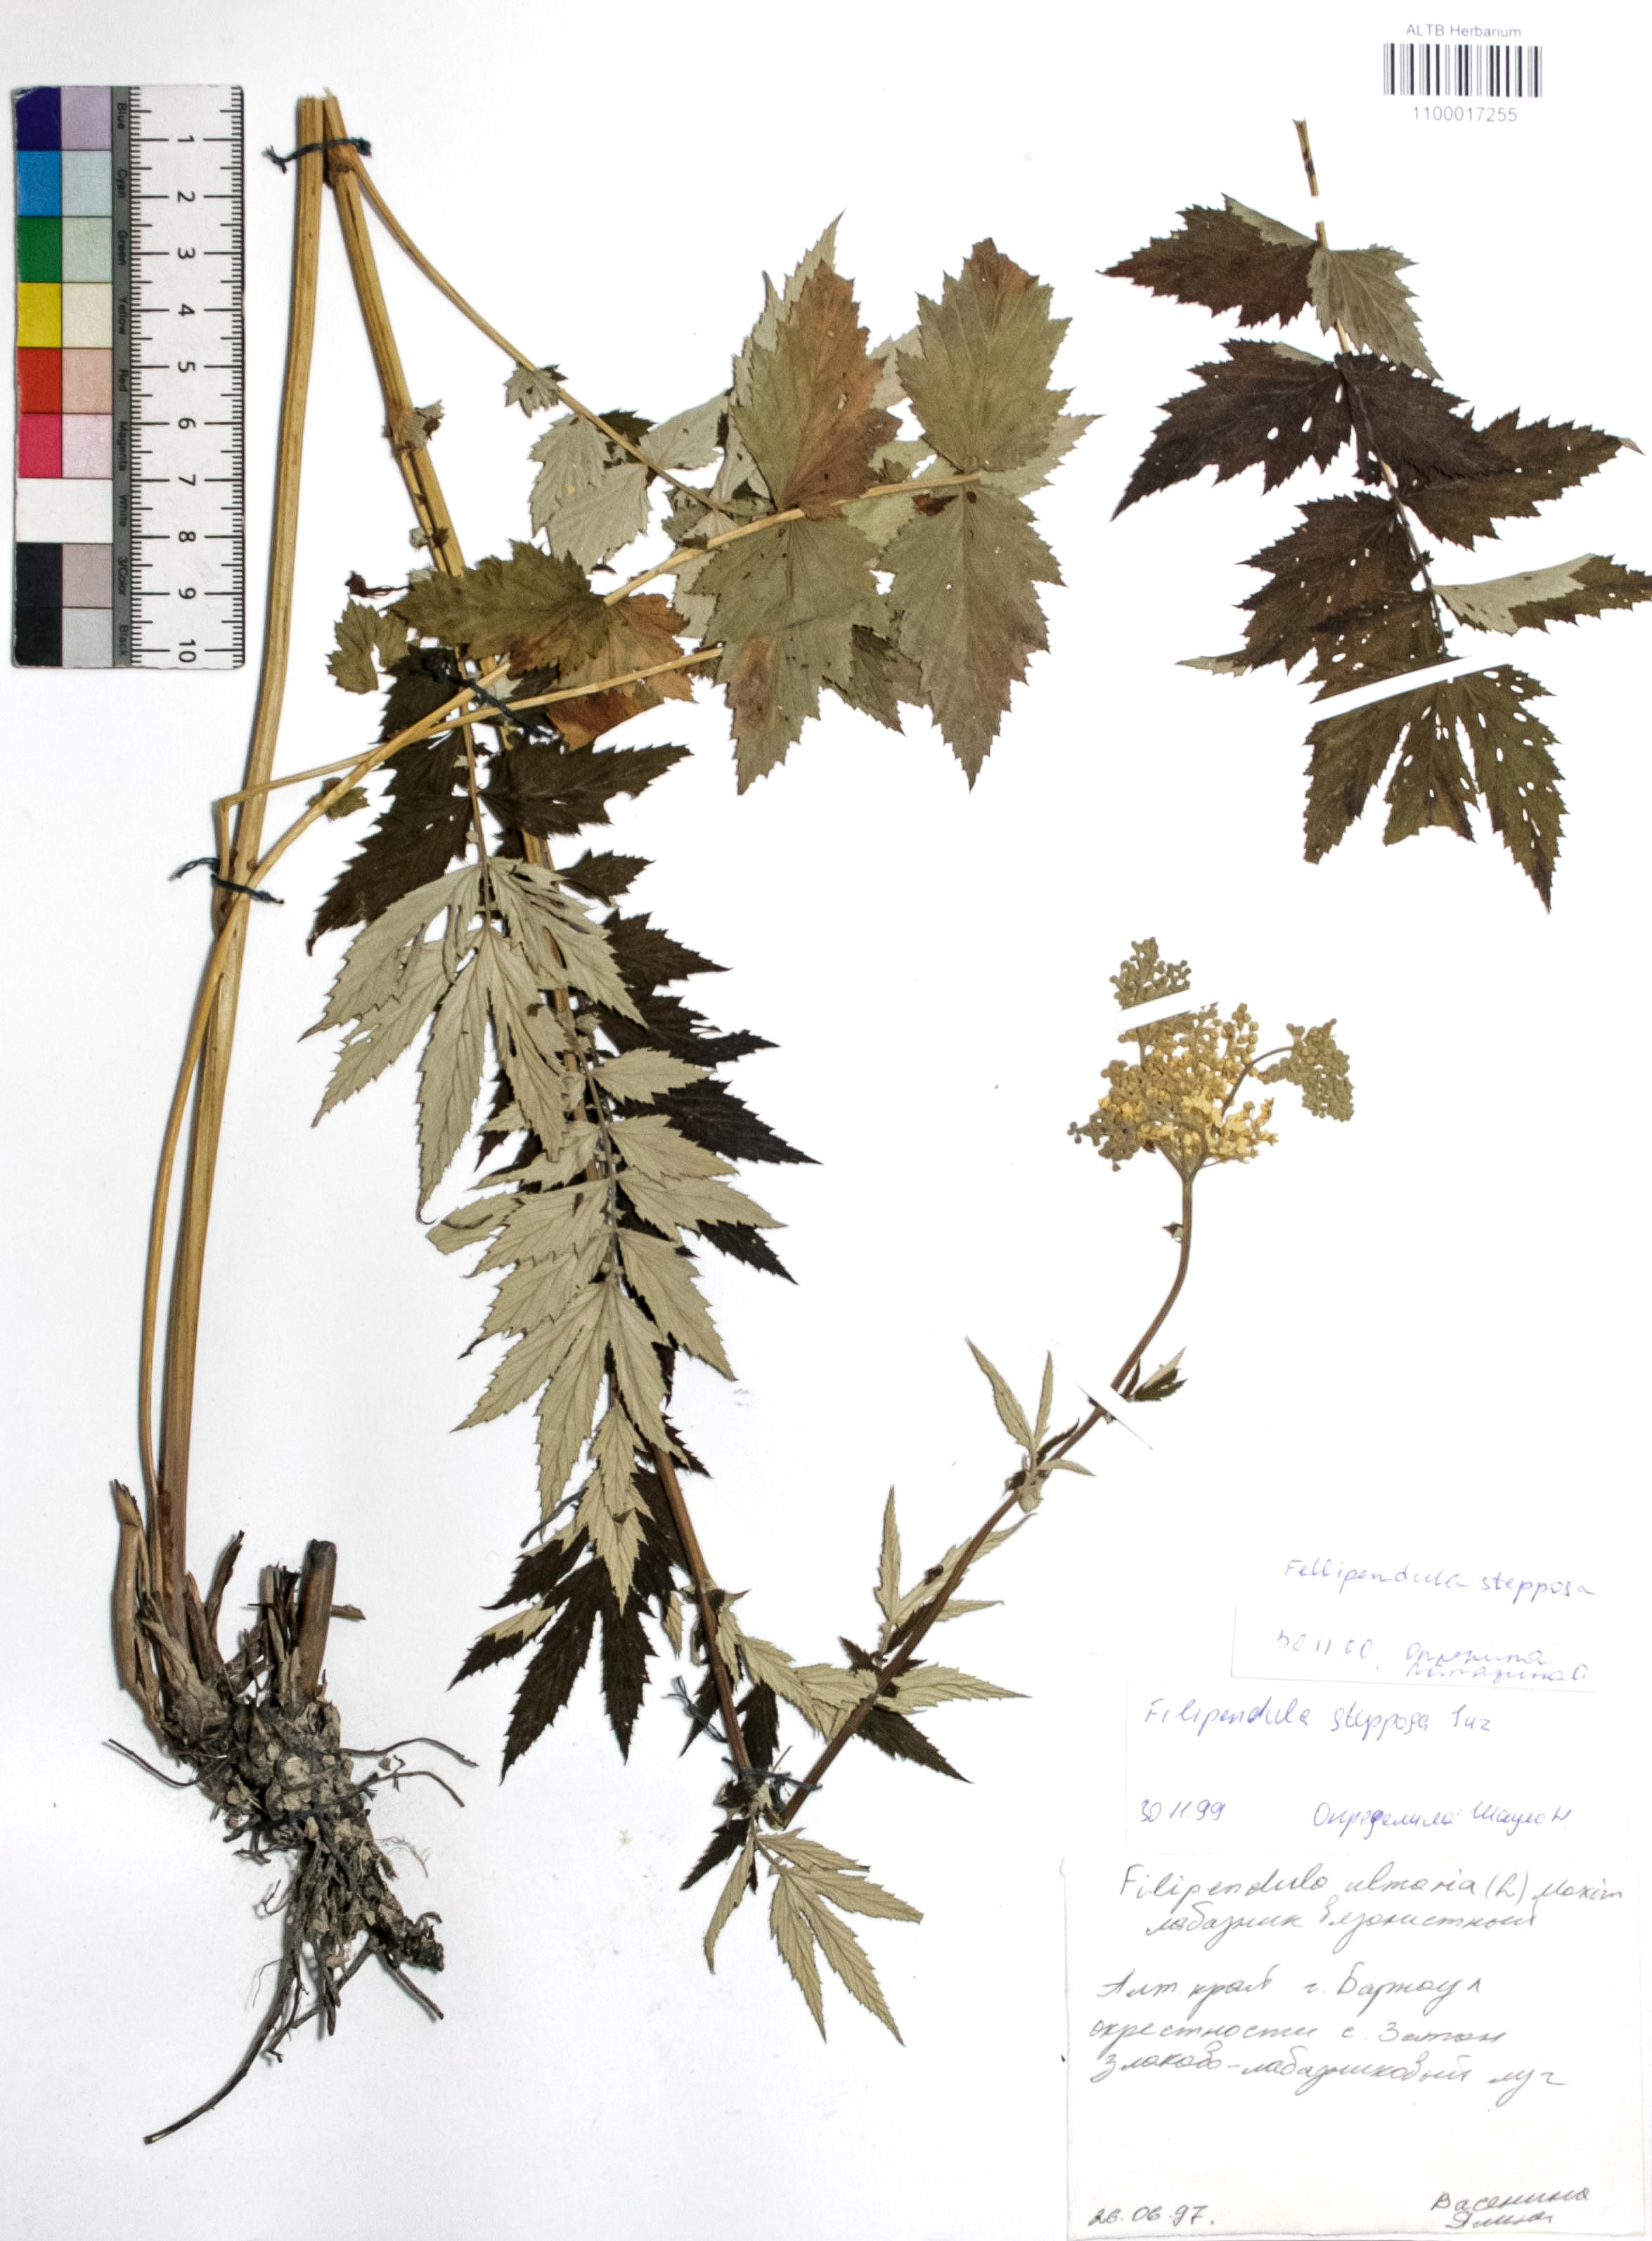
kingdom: Plantae
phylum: Tracheophyta
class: Magnoliopsida
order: Rosales
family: Rosaceae
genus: Filipendula
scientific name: Filipendula ulmaria
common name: Meadowsweet
